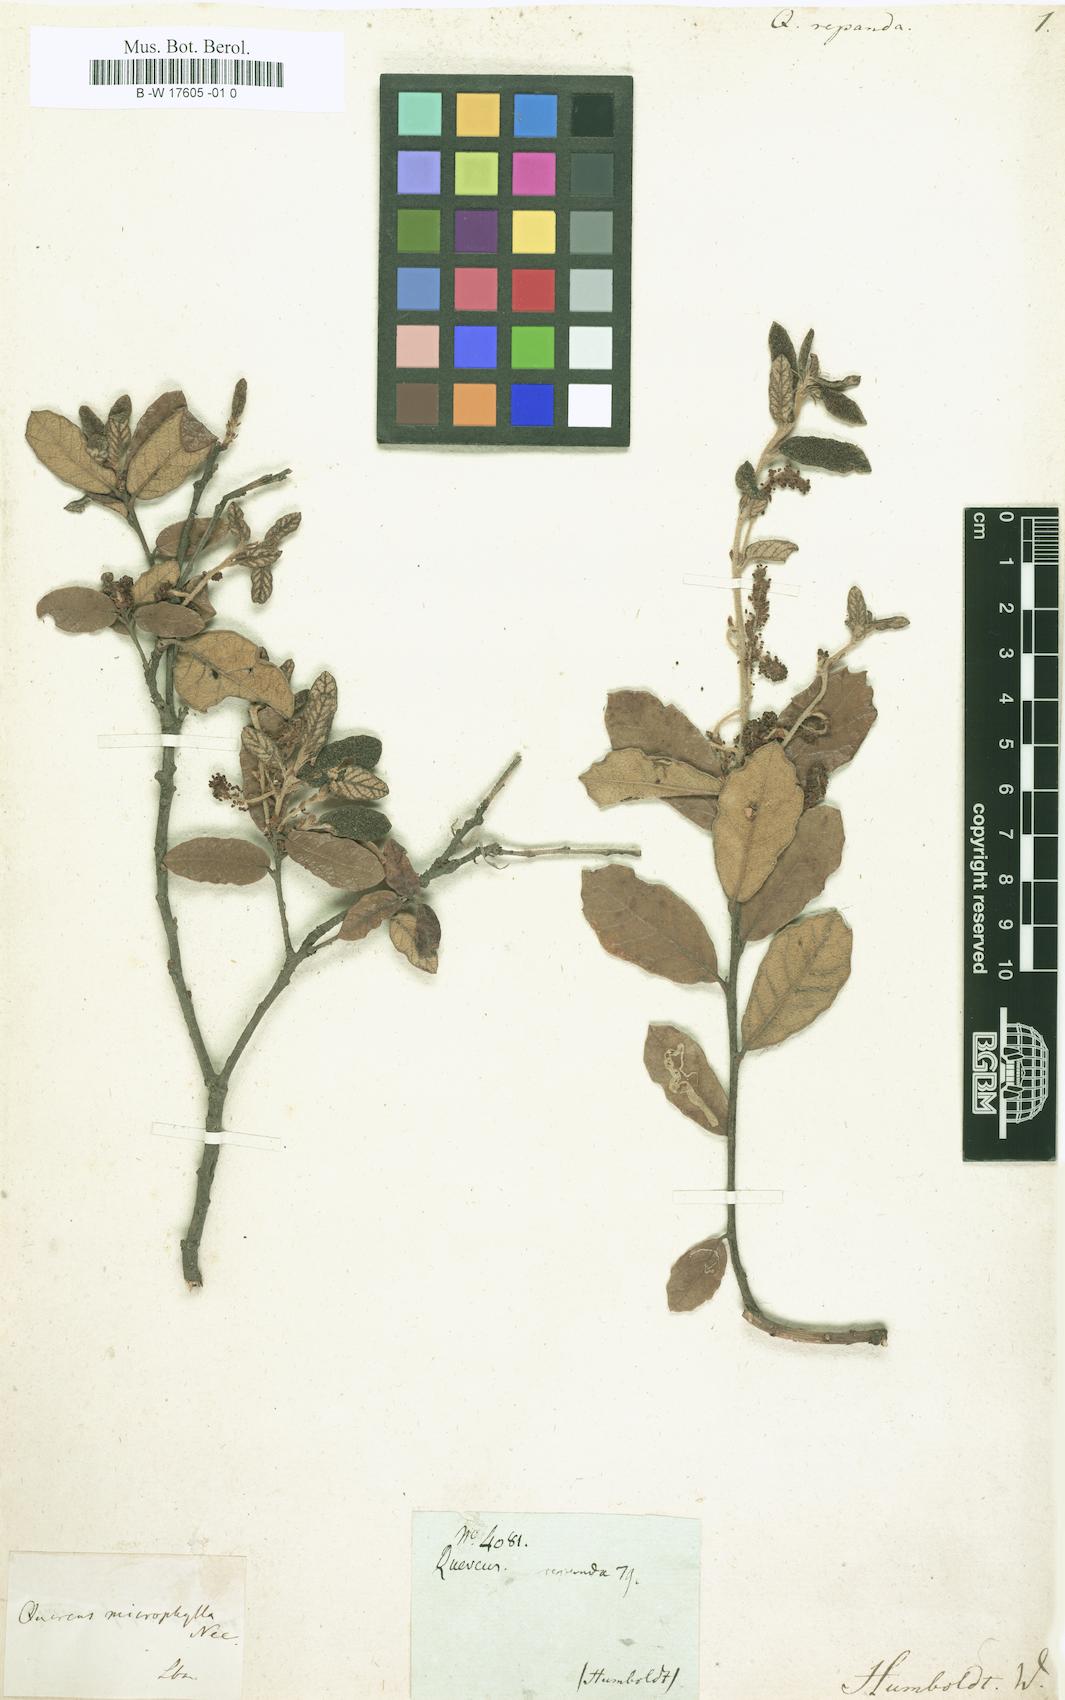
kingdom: Plantae
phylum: Tracheophyta
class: Magnoliopsida
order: Fagales
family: Fagaceae
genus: Quercus
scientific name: Quercus repanda
